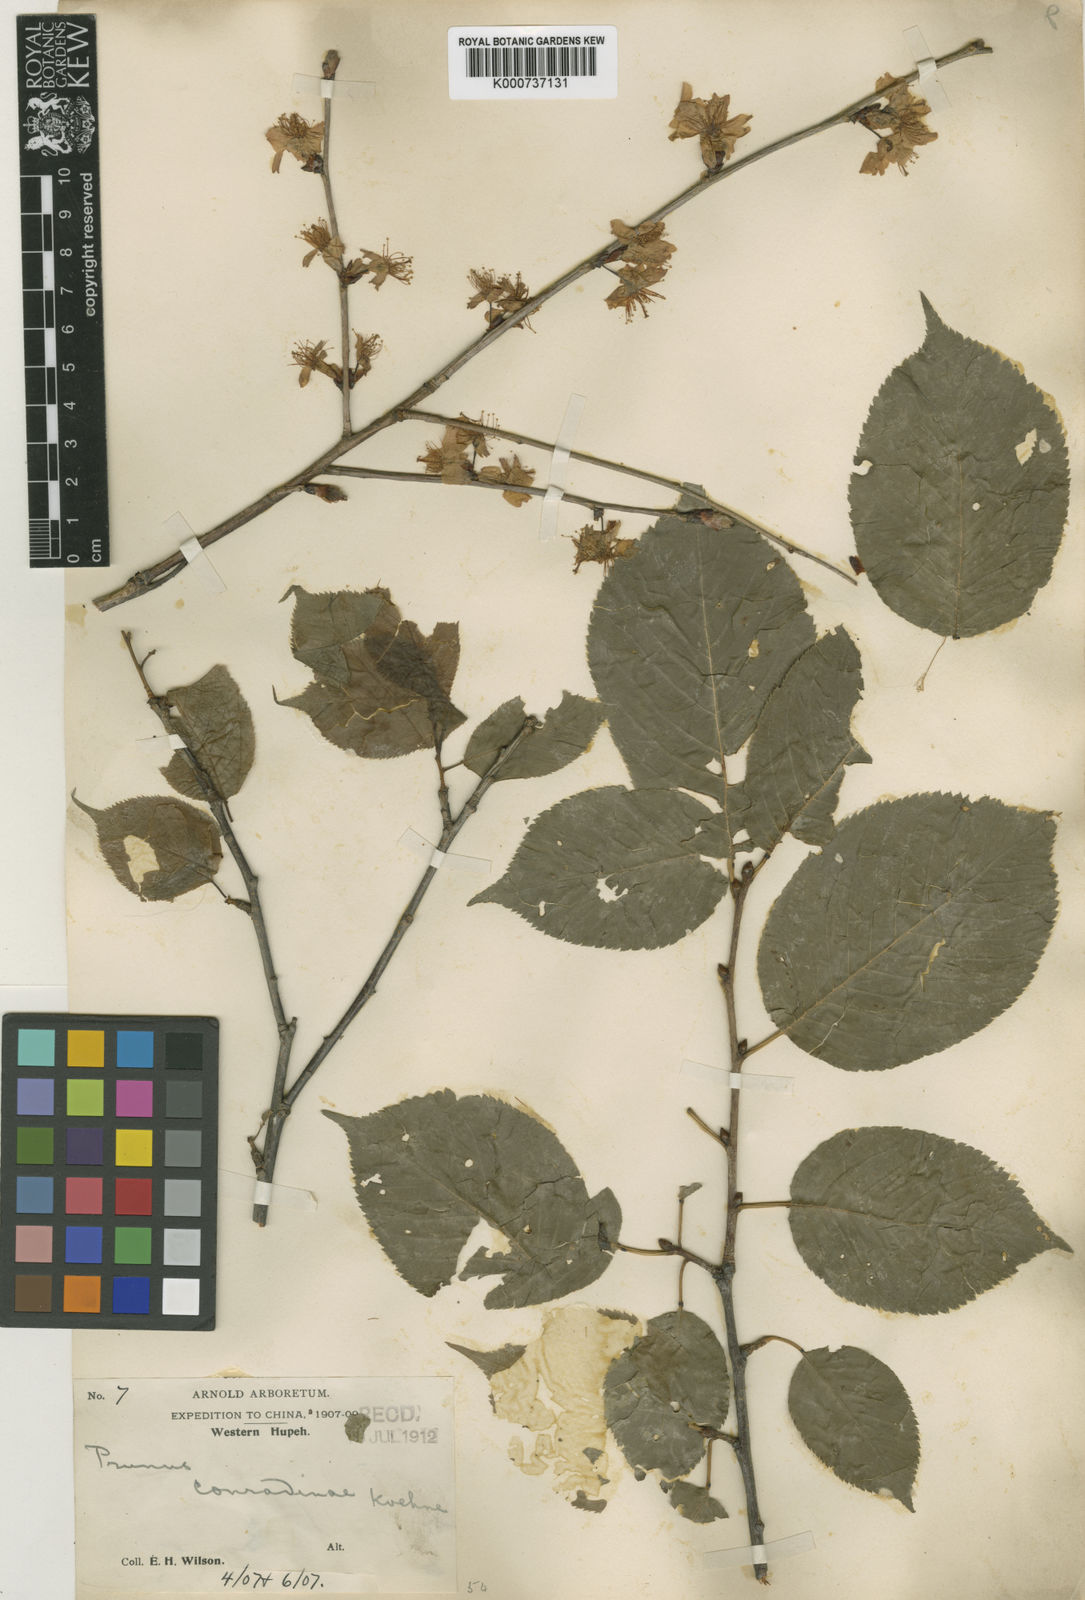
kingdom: Plantae
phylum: Tracheophyta
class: Magnoliopsida
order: Rosales
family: Rosaceae
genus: Prunus
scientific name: Prunus conradinae
